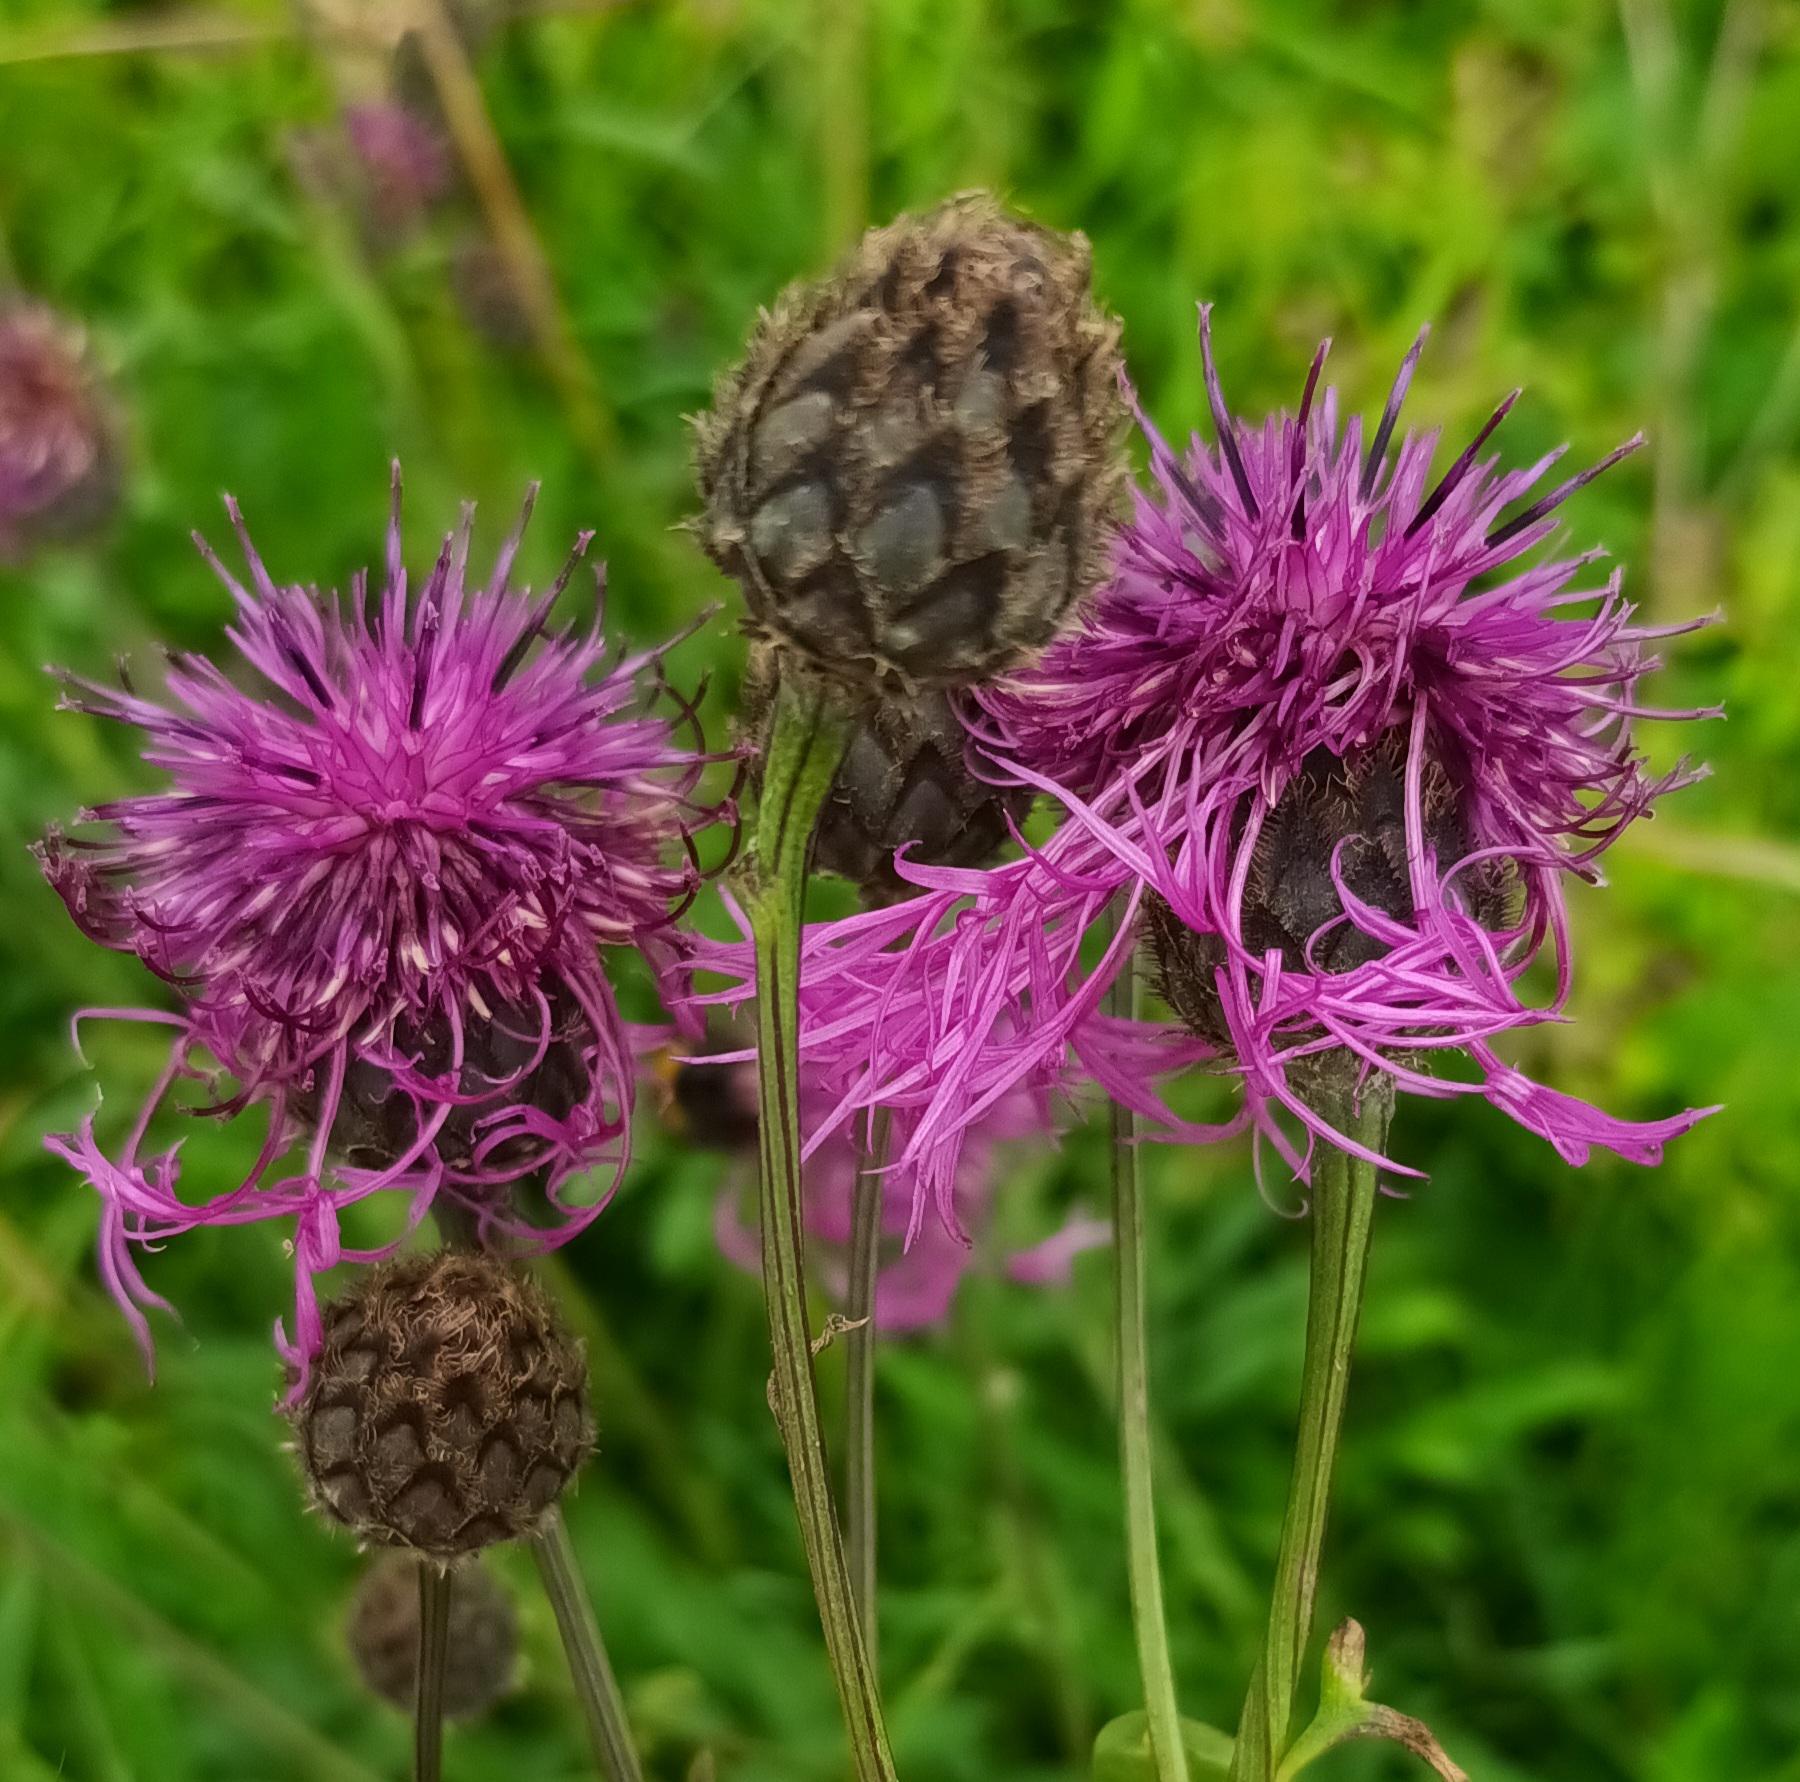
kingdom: Plantae
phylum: Tracheophyta
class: Magnoliopsida
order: Asterales
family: Asteraceae
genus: Centaurea
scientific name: Centaurea scabiosa
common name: Stor knopurt
